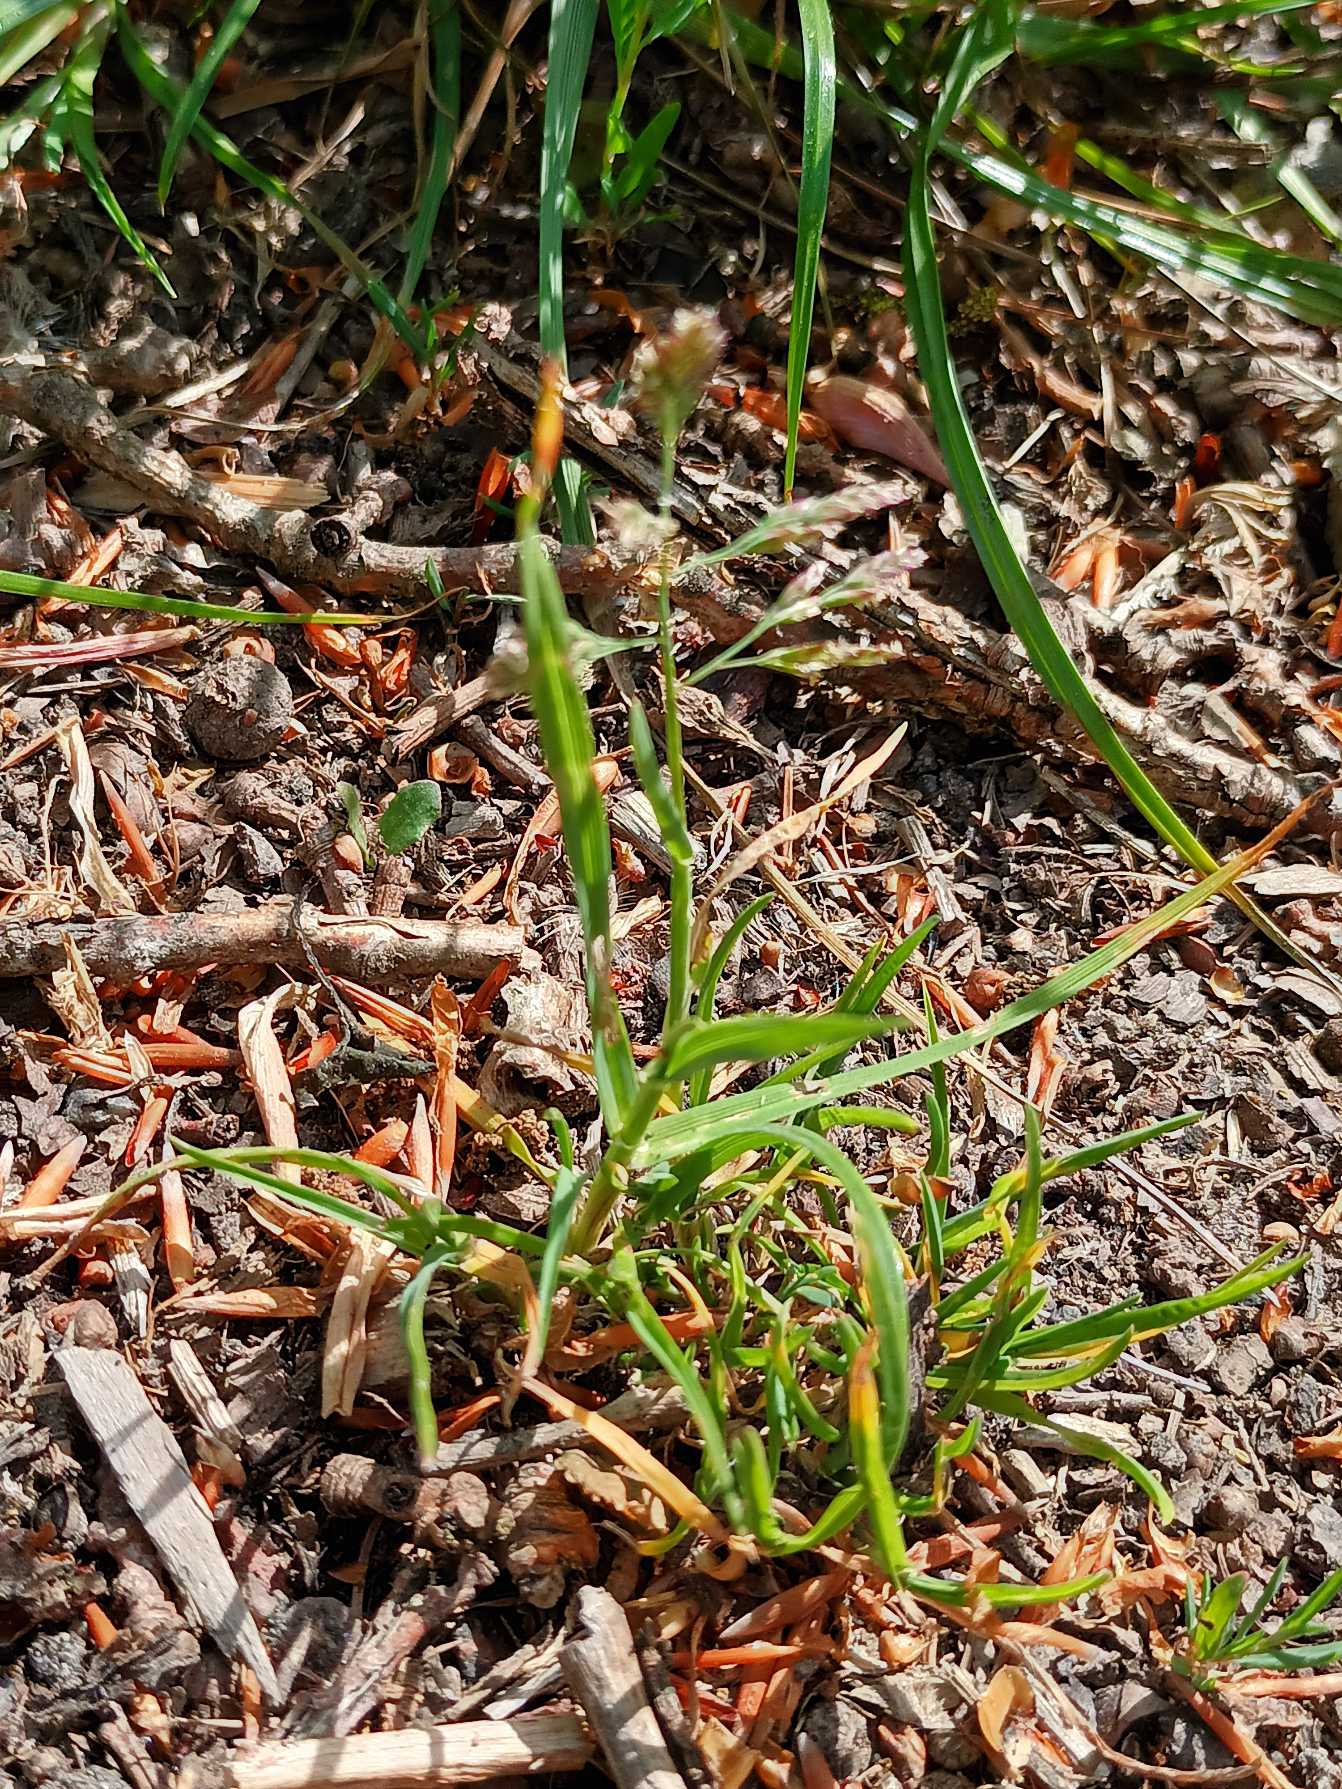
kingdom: Plantae
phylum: Tracheophyta
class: Liliopsida
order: Poales
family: Poaceae
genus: Poa
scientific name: Poa annua
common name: Enårig rapgræs
